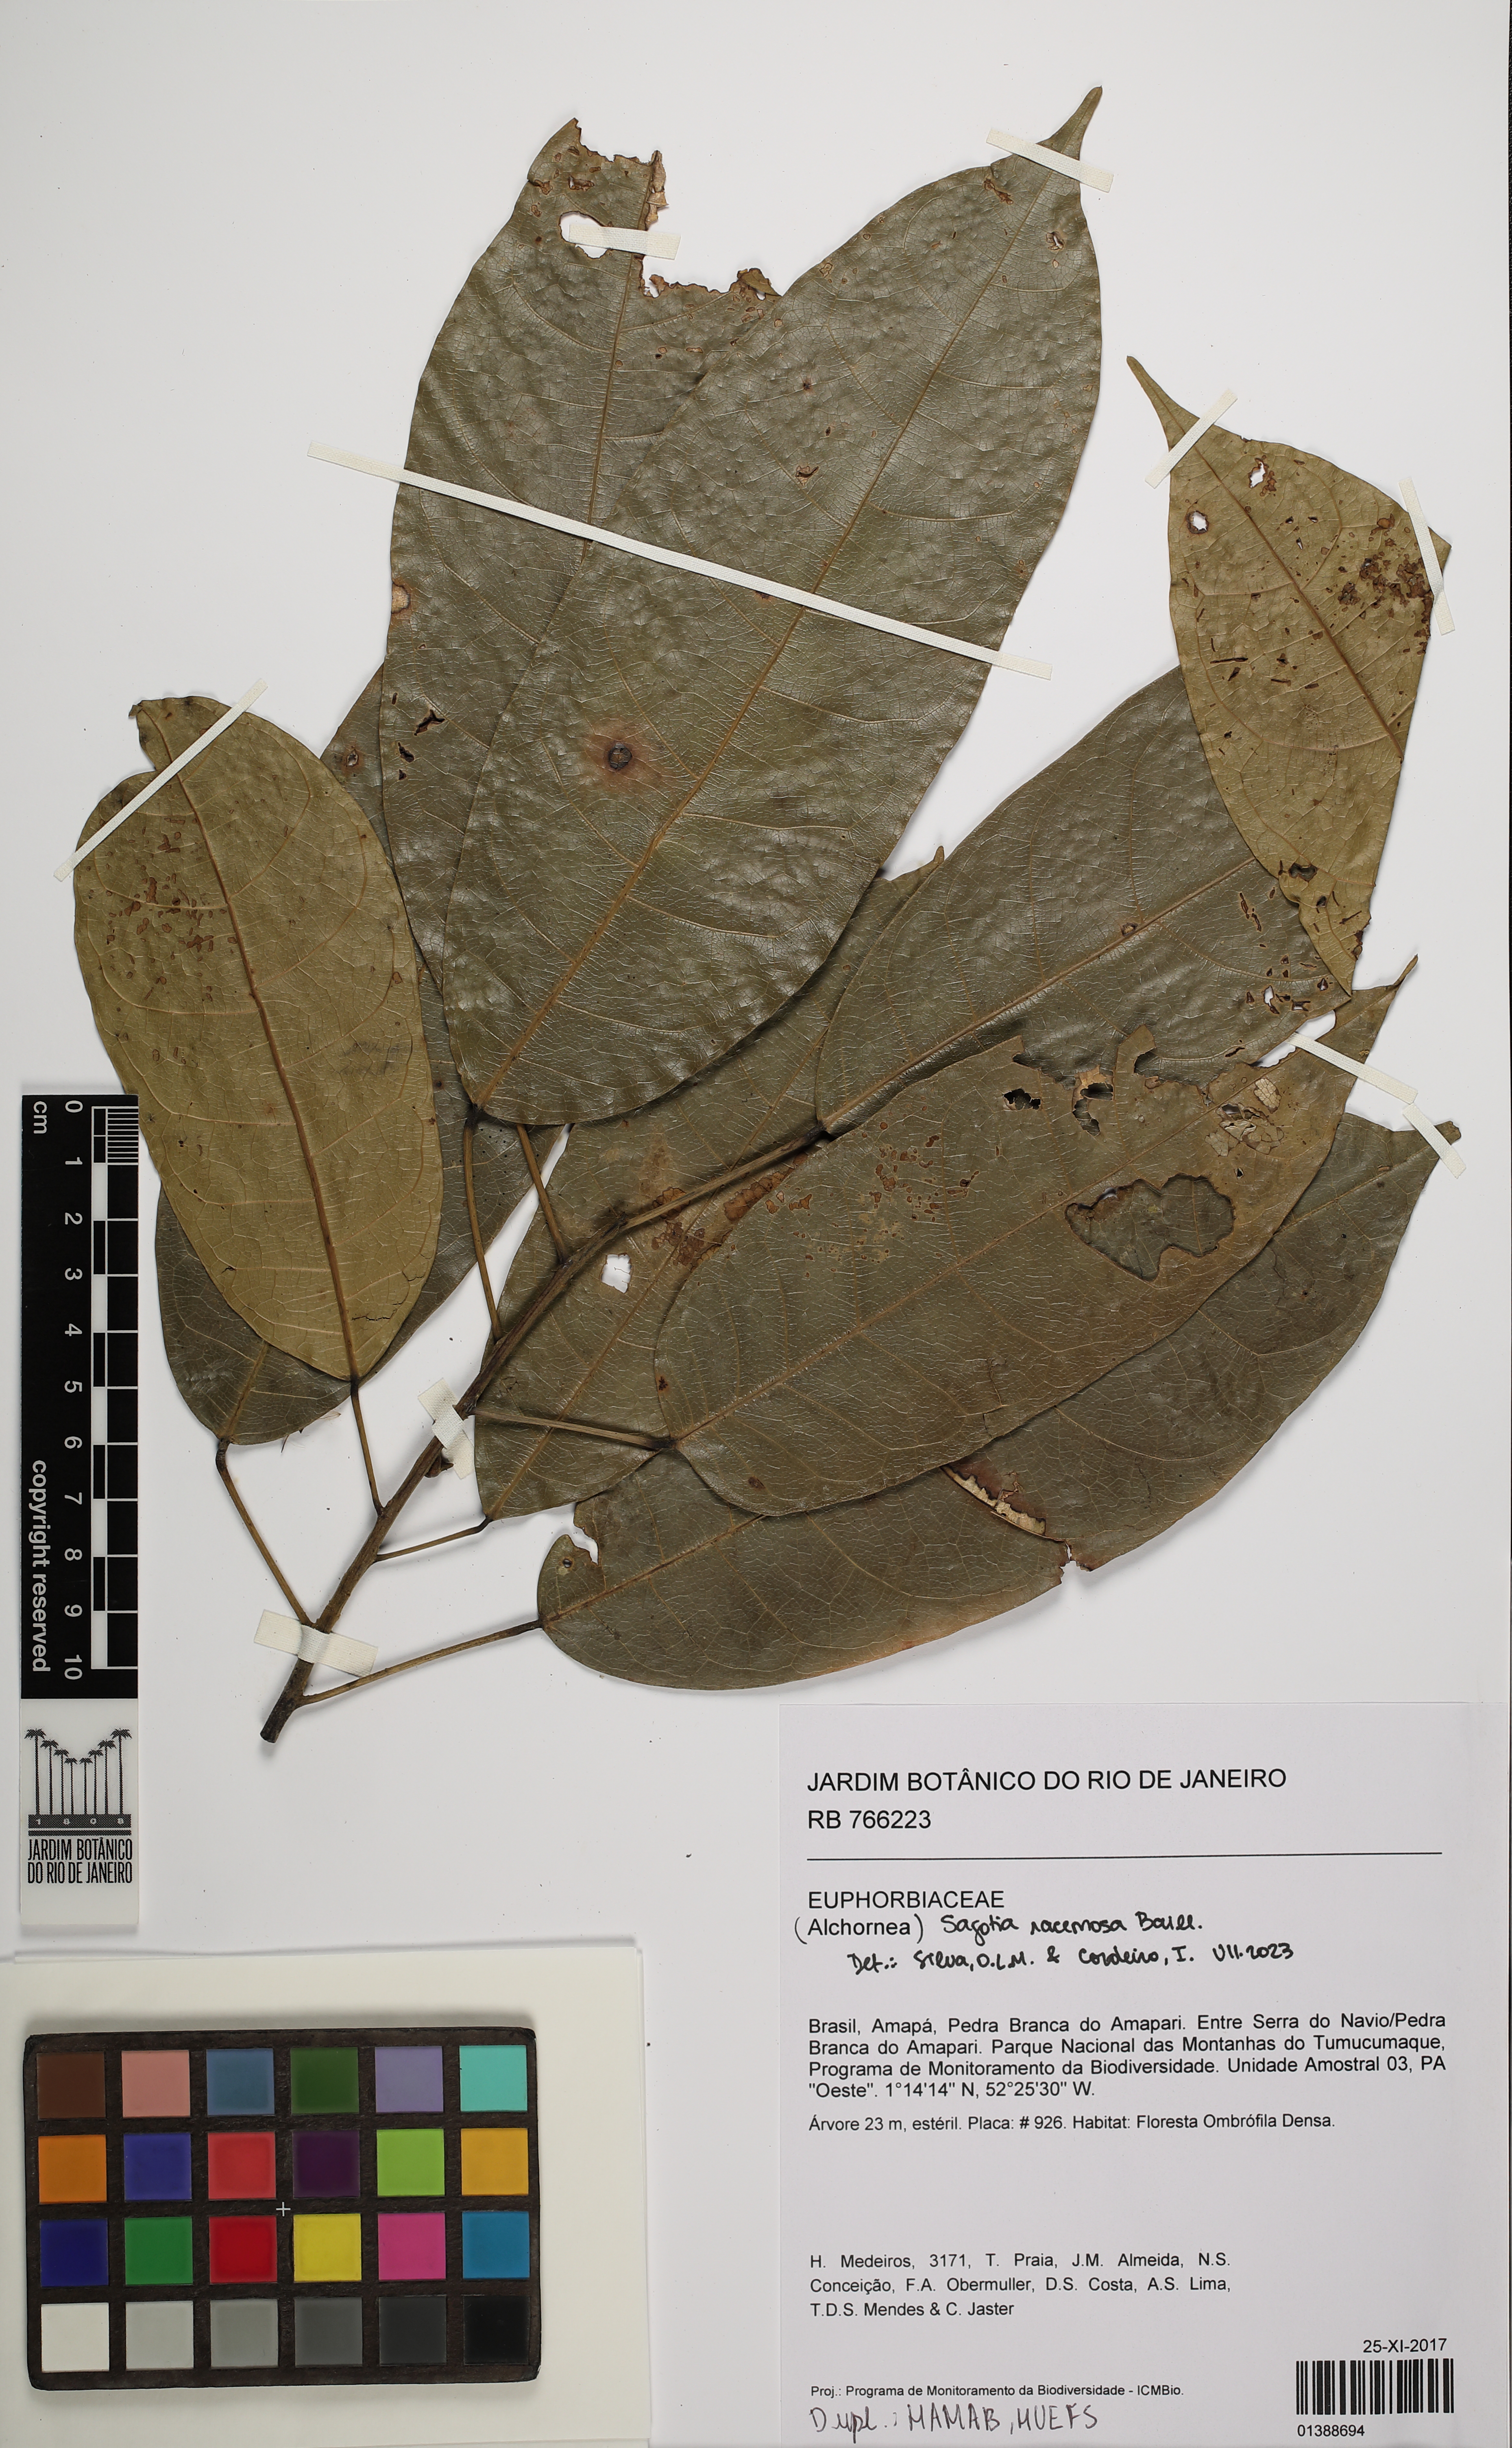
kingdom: Plantae
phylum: Tracheophyta
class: Magnoliopsida
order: Malpighiales
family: Euphorbiaceae
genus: Sagotia
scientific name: Sagotia racemosa
